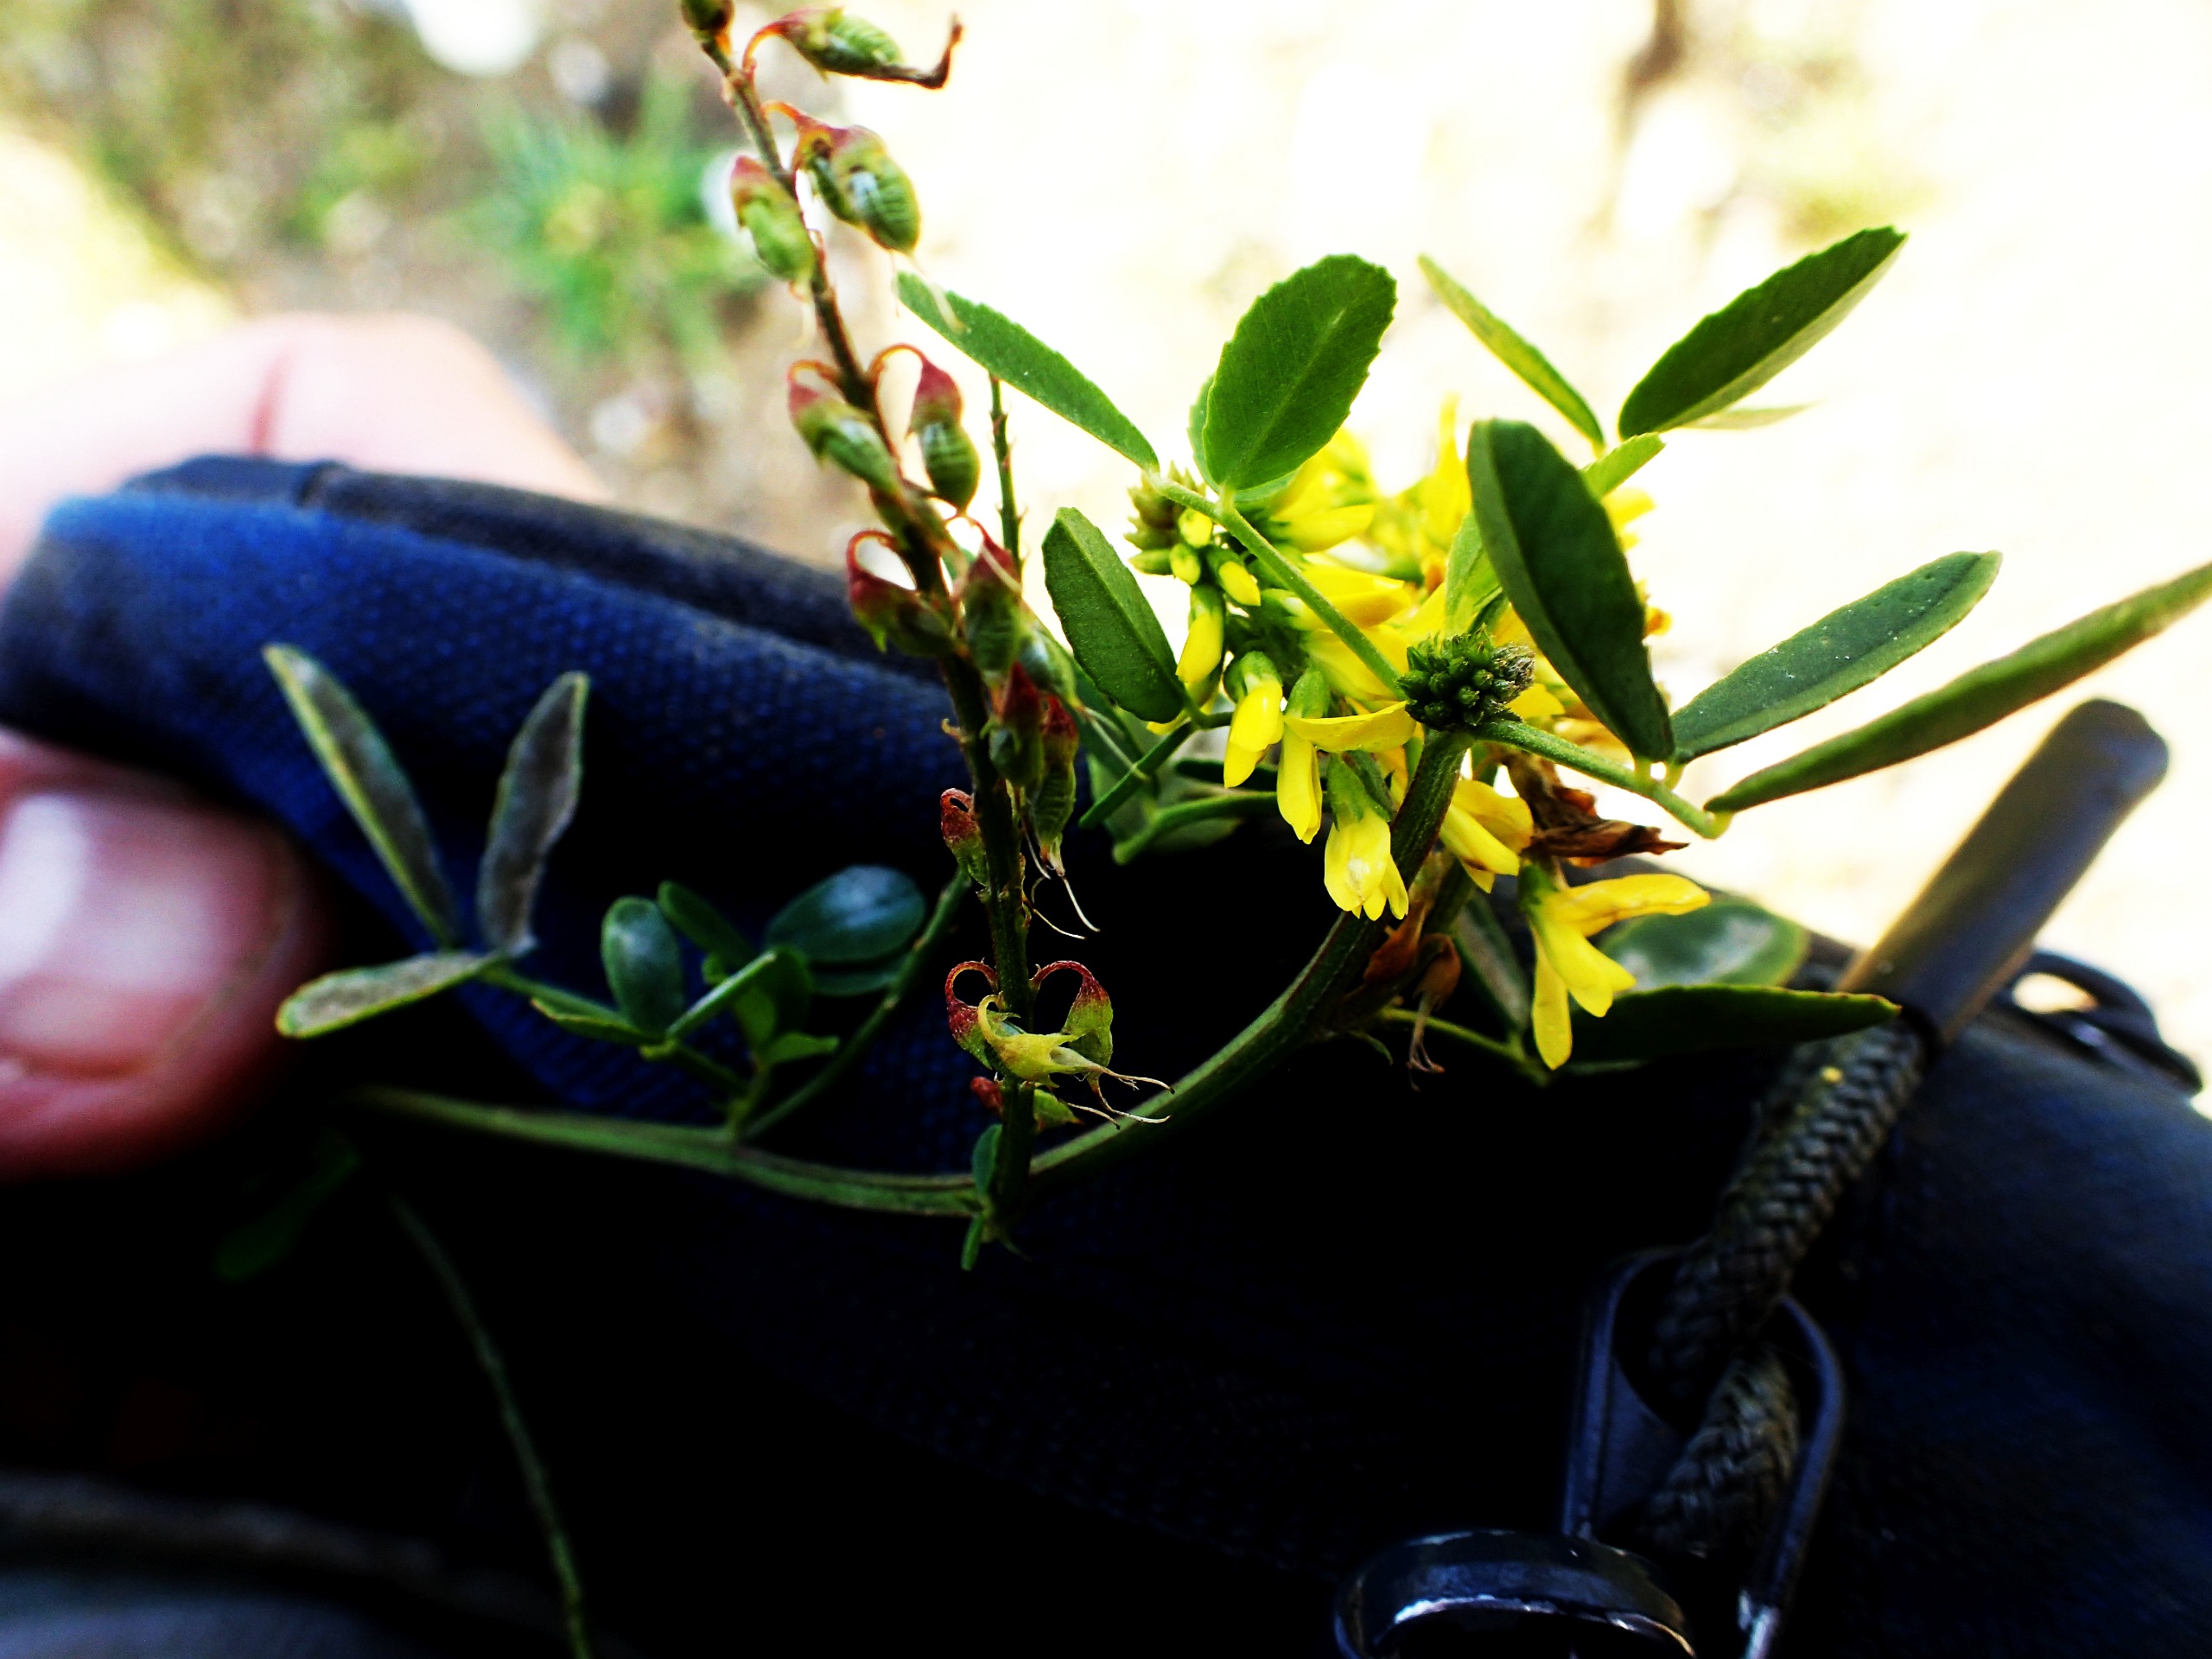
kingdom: Plantae
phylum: Tracheophyta
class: Magnoliopsida
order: Fabales
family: Fabaceae
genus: Melilotus
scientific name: Melilotus officinalis
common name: Mark-stenkløver
